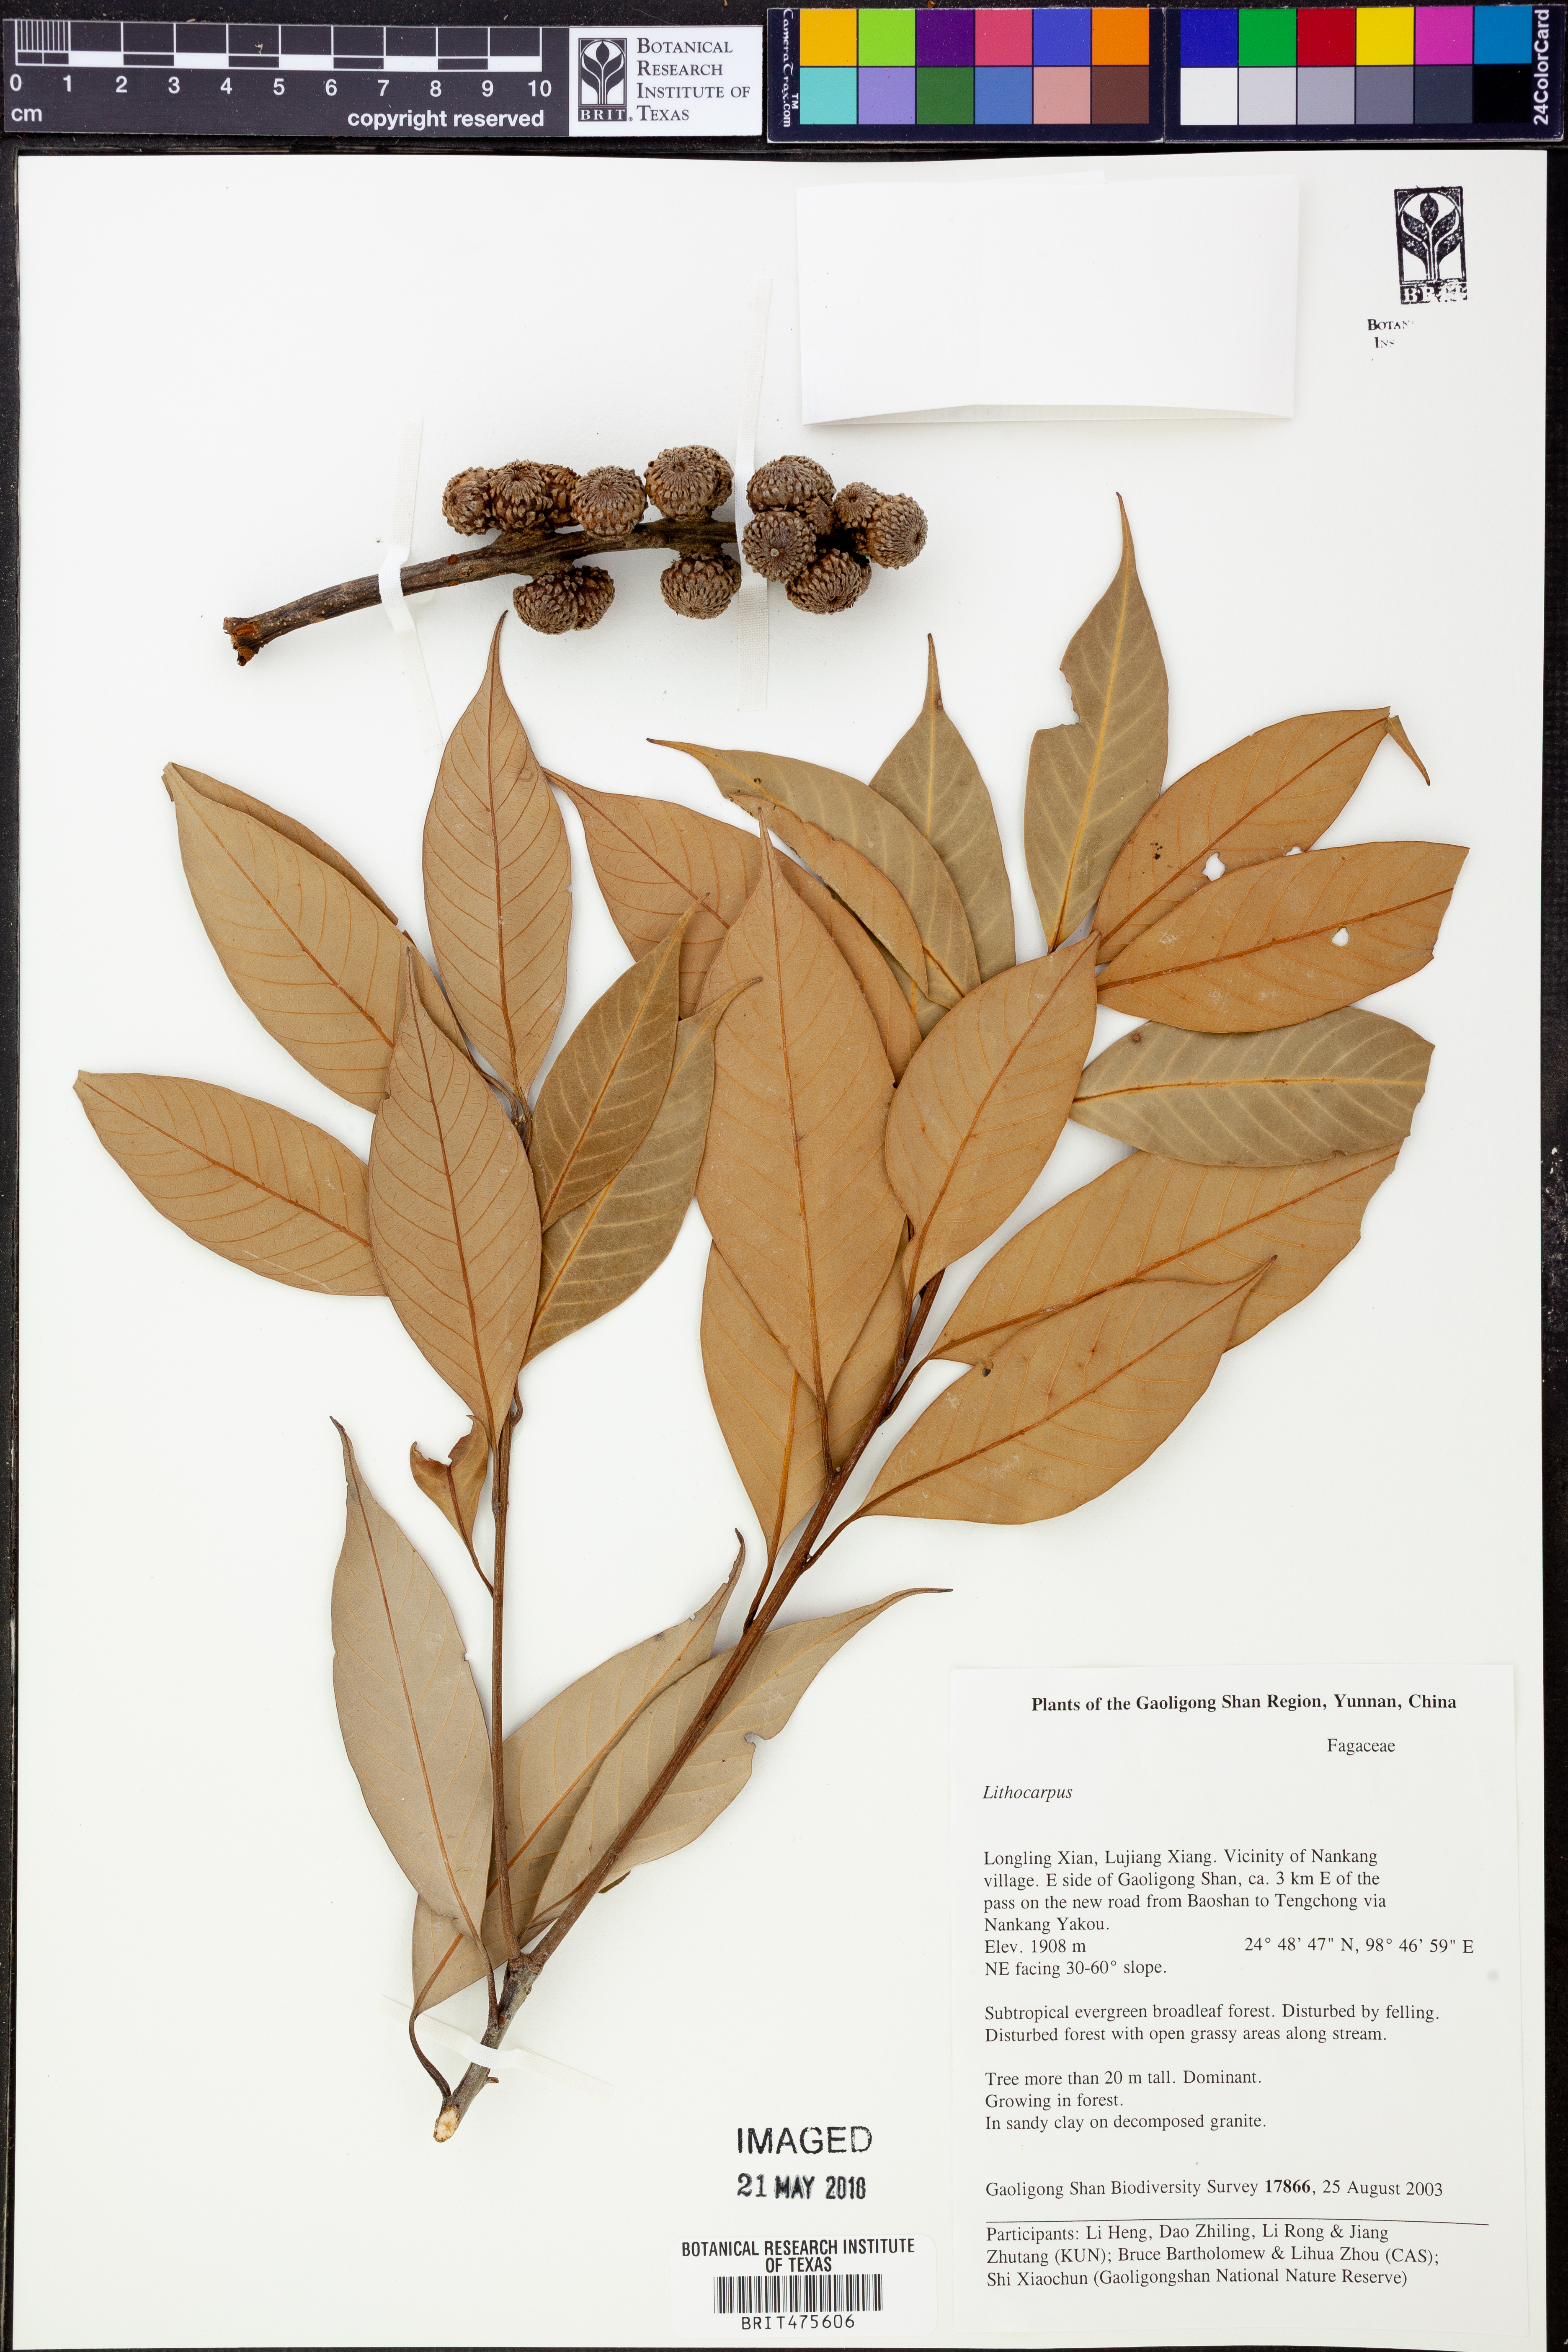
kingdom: Plantae
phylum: Tracheophyta
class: Magnoliopsida
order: Fagales
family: Fagaceae
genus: Lithocarpus
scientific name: Lithocarpus
